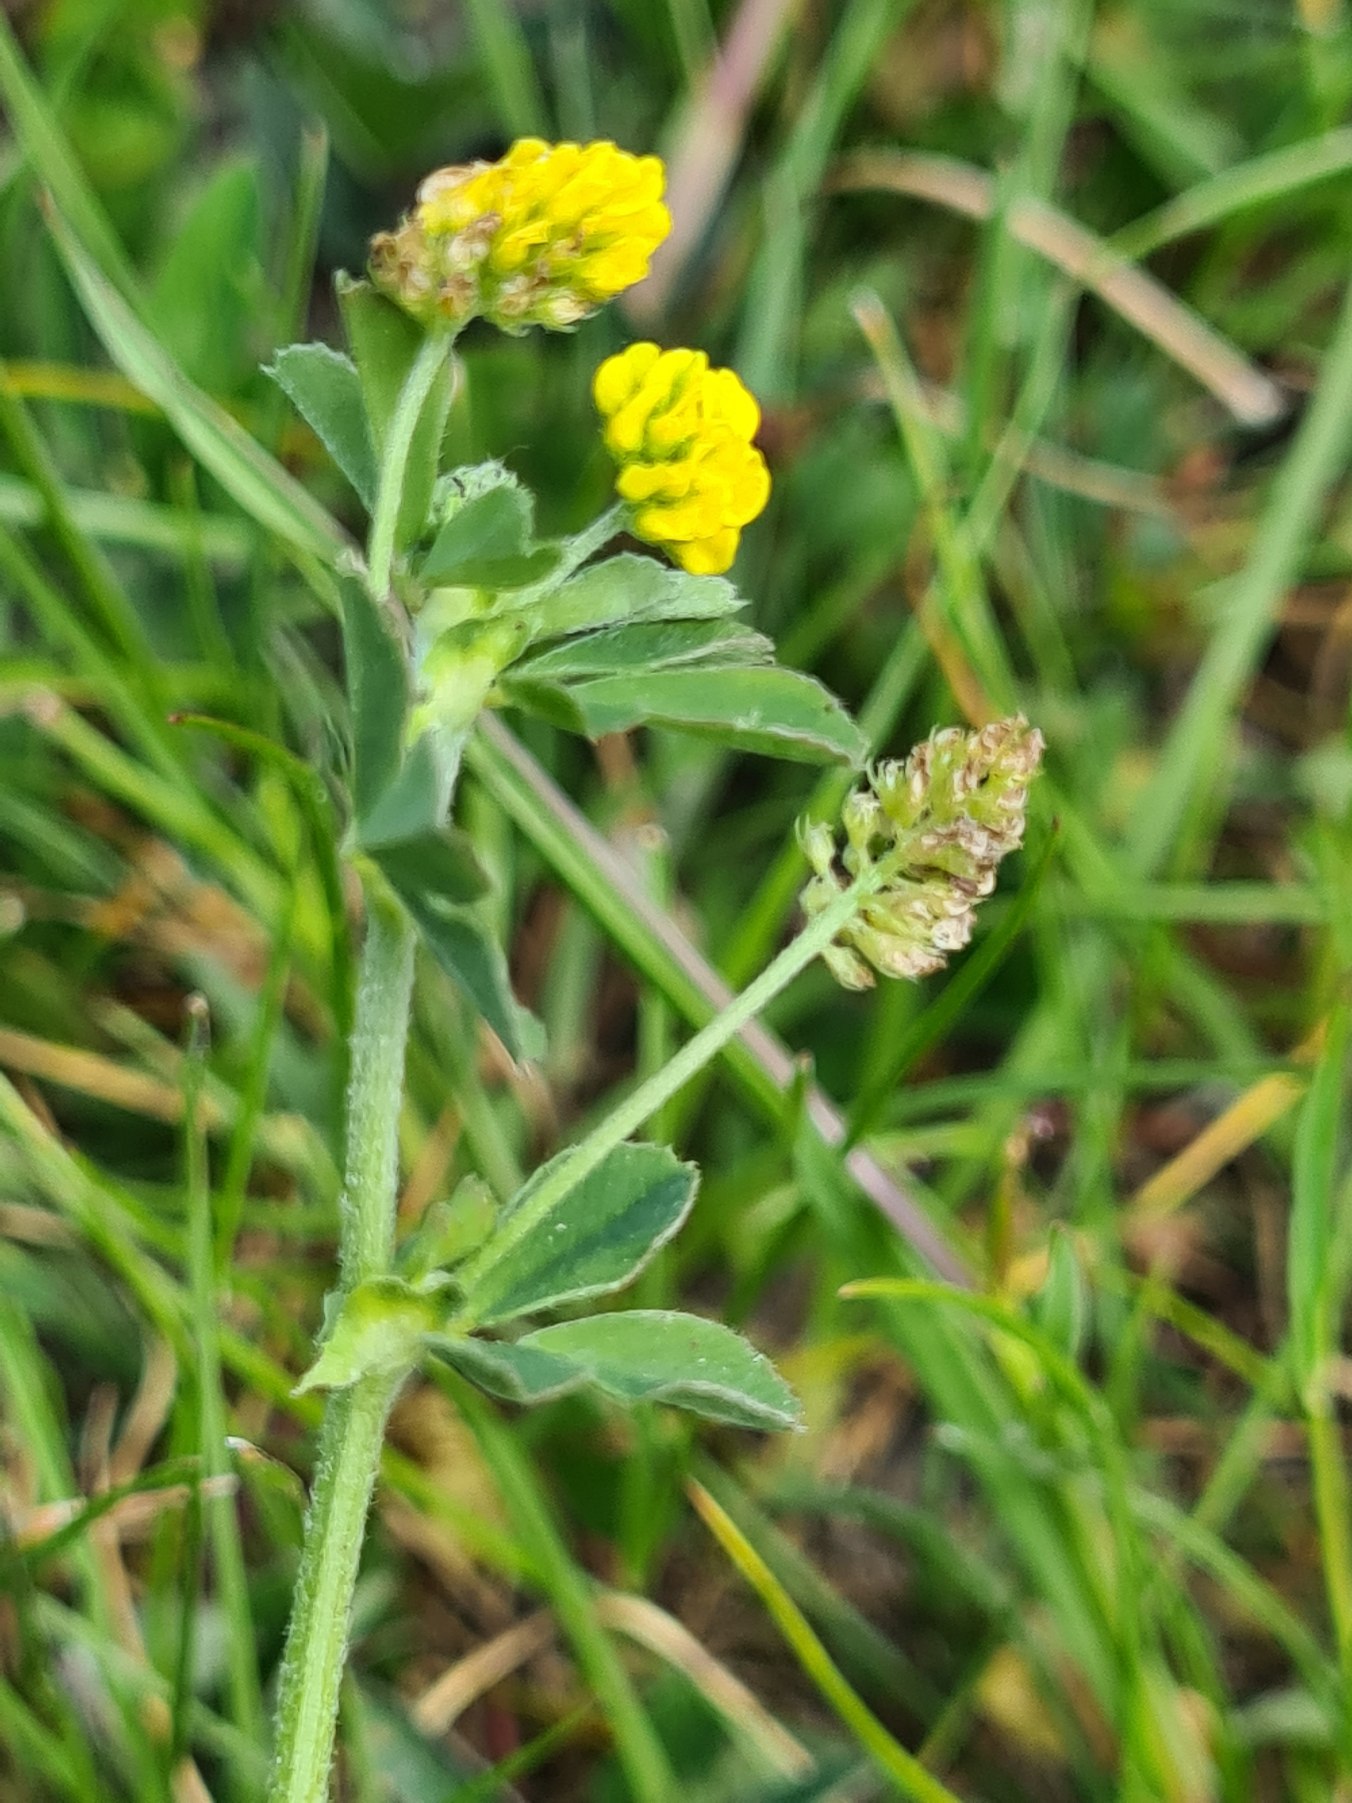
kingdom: Plantae
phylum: Tracheophyta
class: Magnoliopsida
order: Fabales
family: Fabaceae
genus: Medicago
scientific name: Medicago lupulina
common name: Humle-sneglebælg
